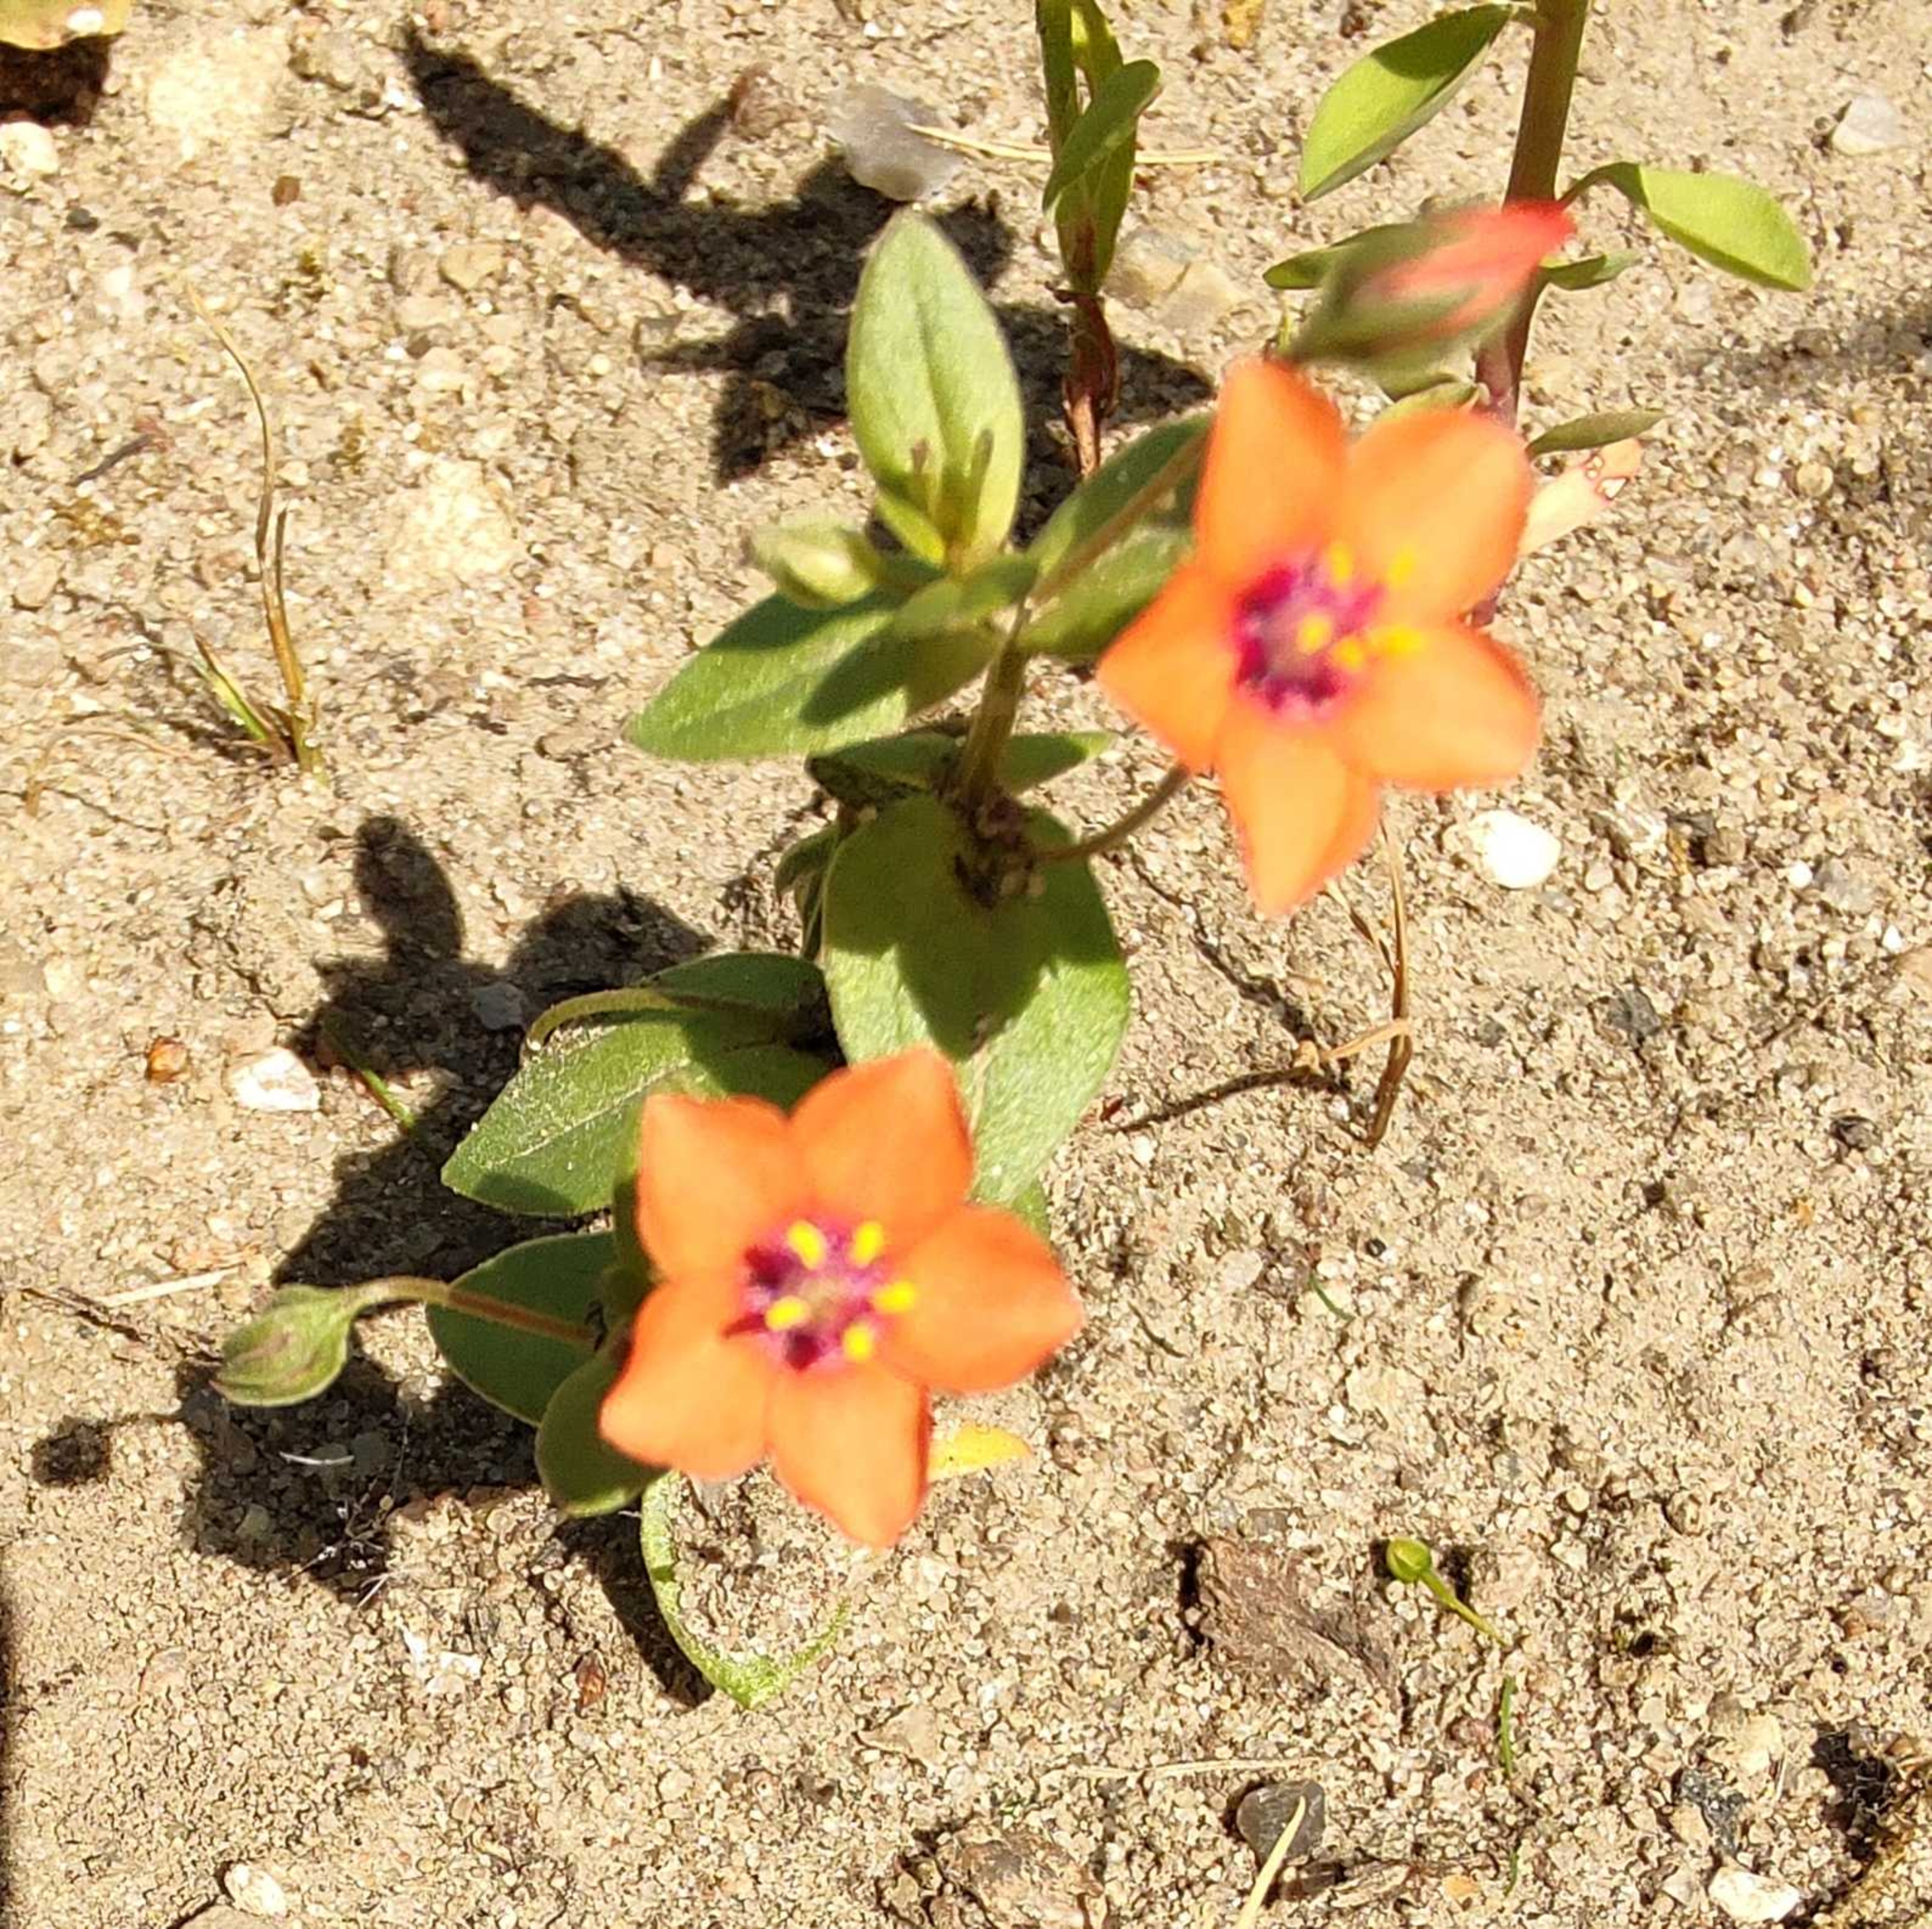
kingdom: Plantae
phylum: Tracheophyta
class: Magnoliopsida
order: Ericales
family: Primulaceae
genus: Lysimachia
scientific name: Lysimachia arvensis
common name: Rød arve
